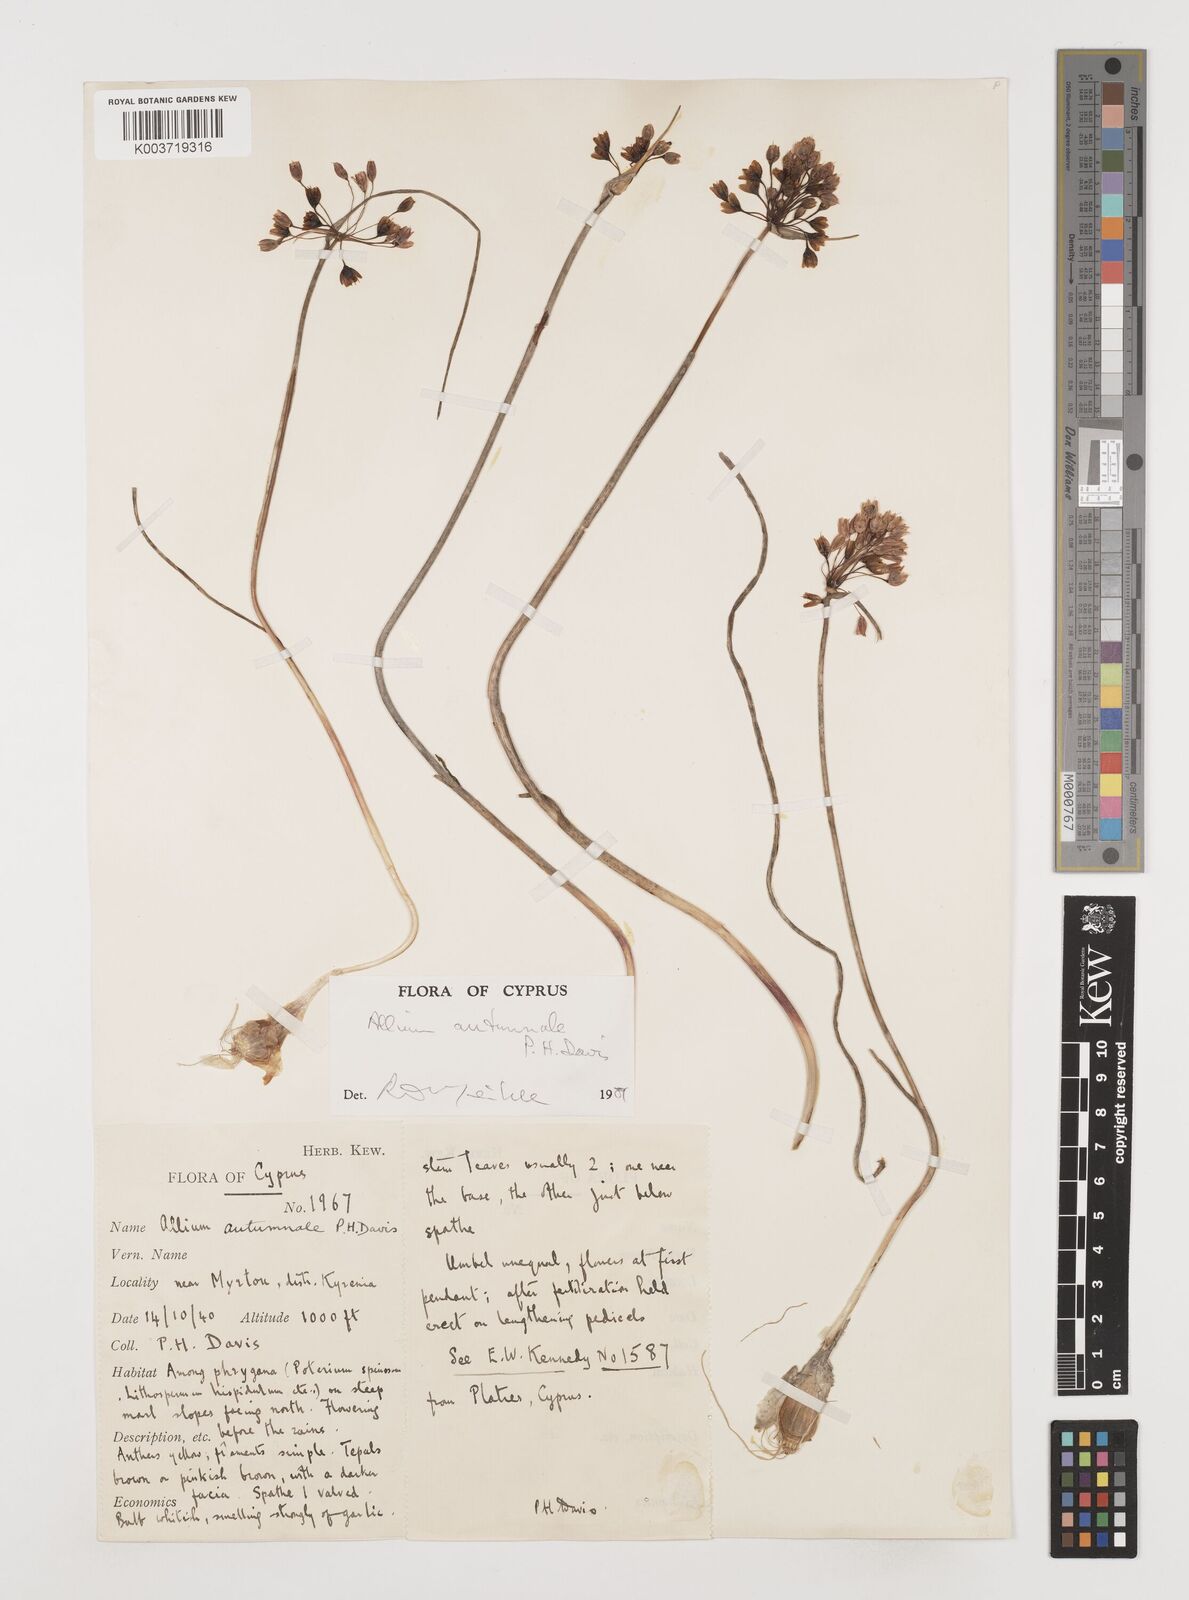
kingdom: Plantae
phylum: Tracheophyta
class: Liliopsida
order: Asparagales
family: Amaryllidaceae
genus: Allium
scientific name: Allium autumnale
